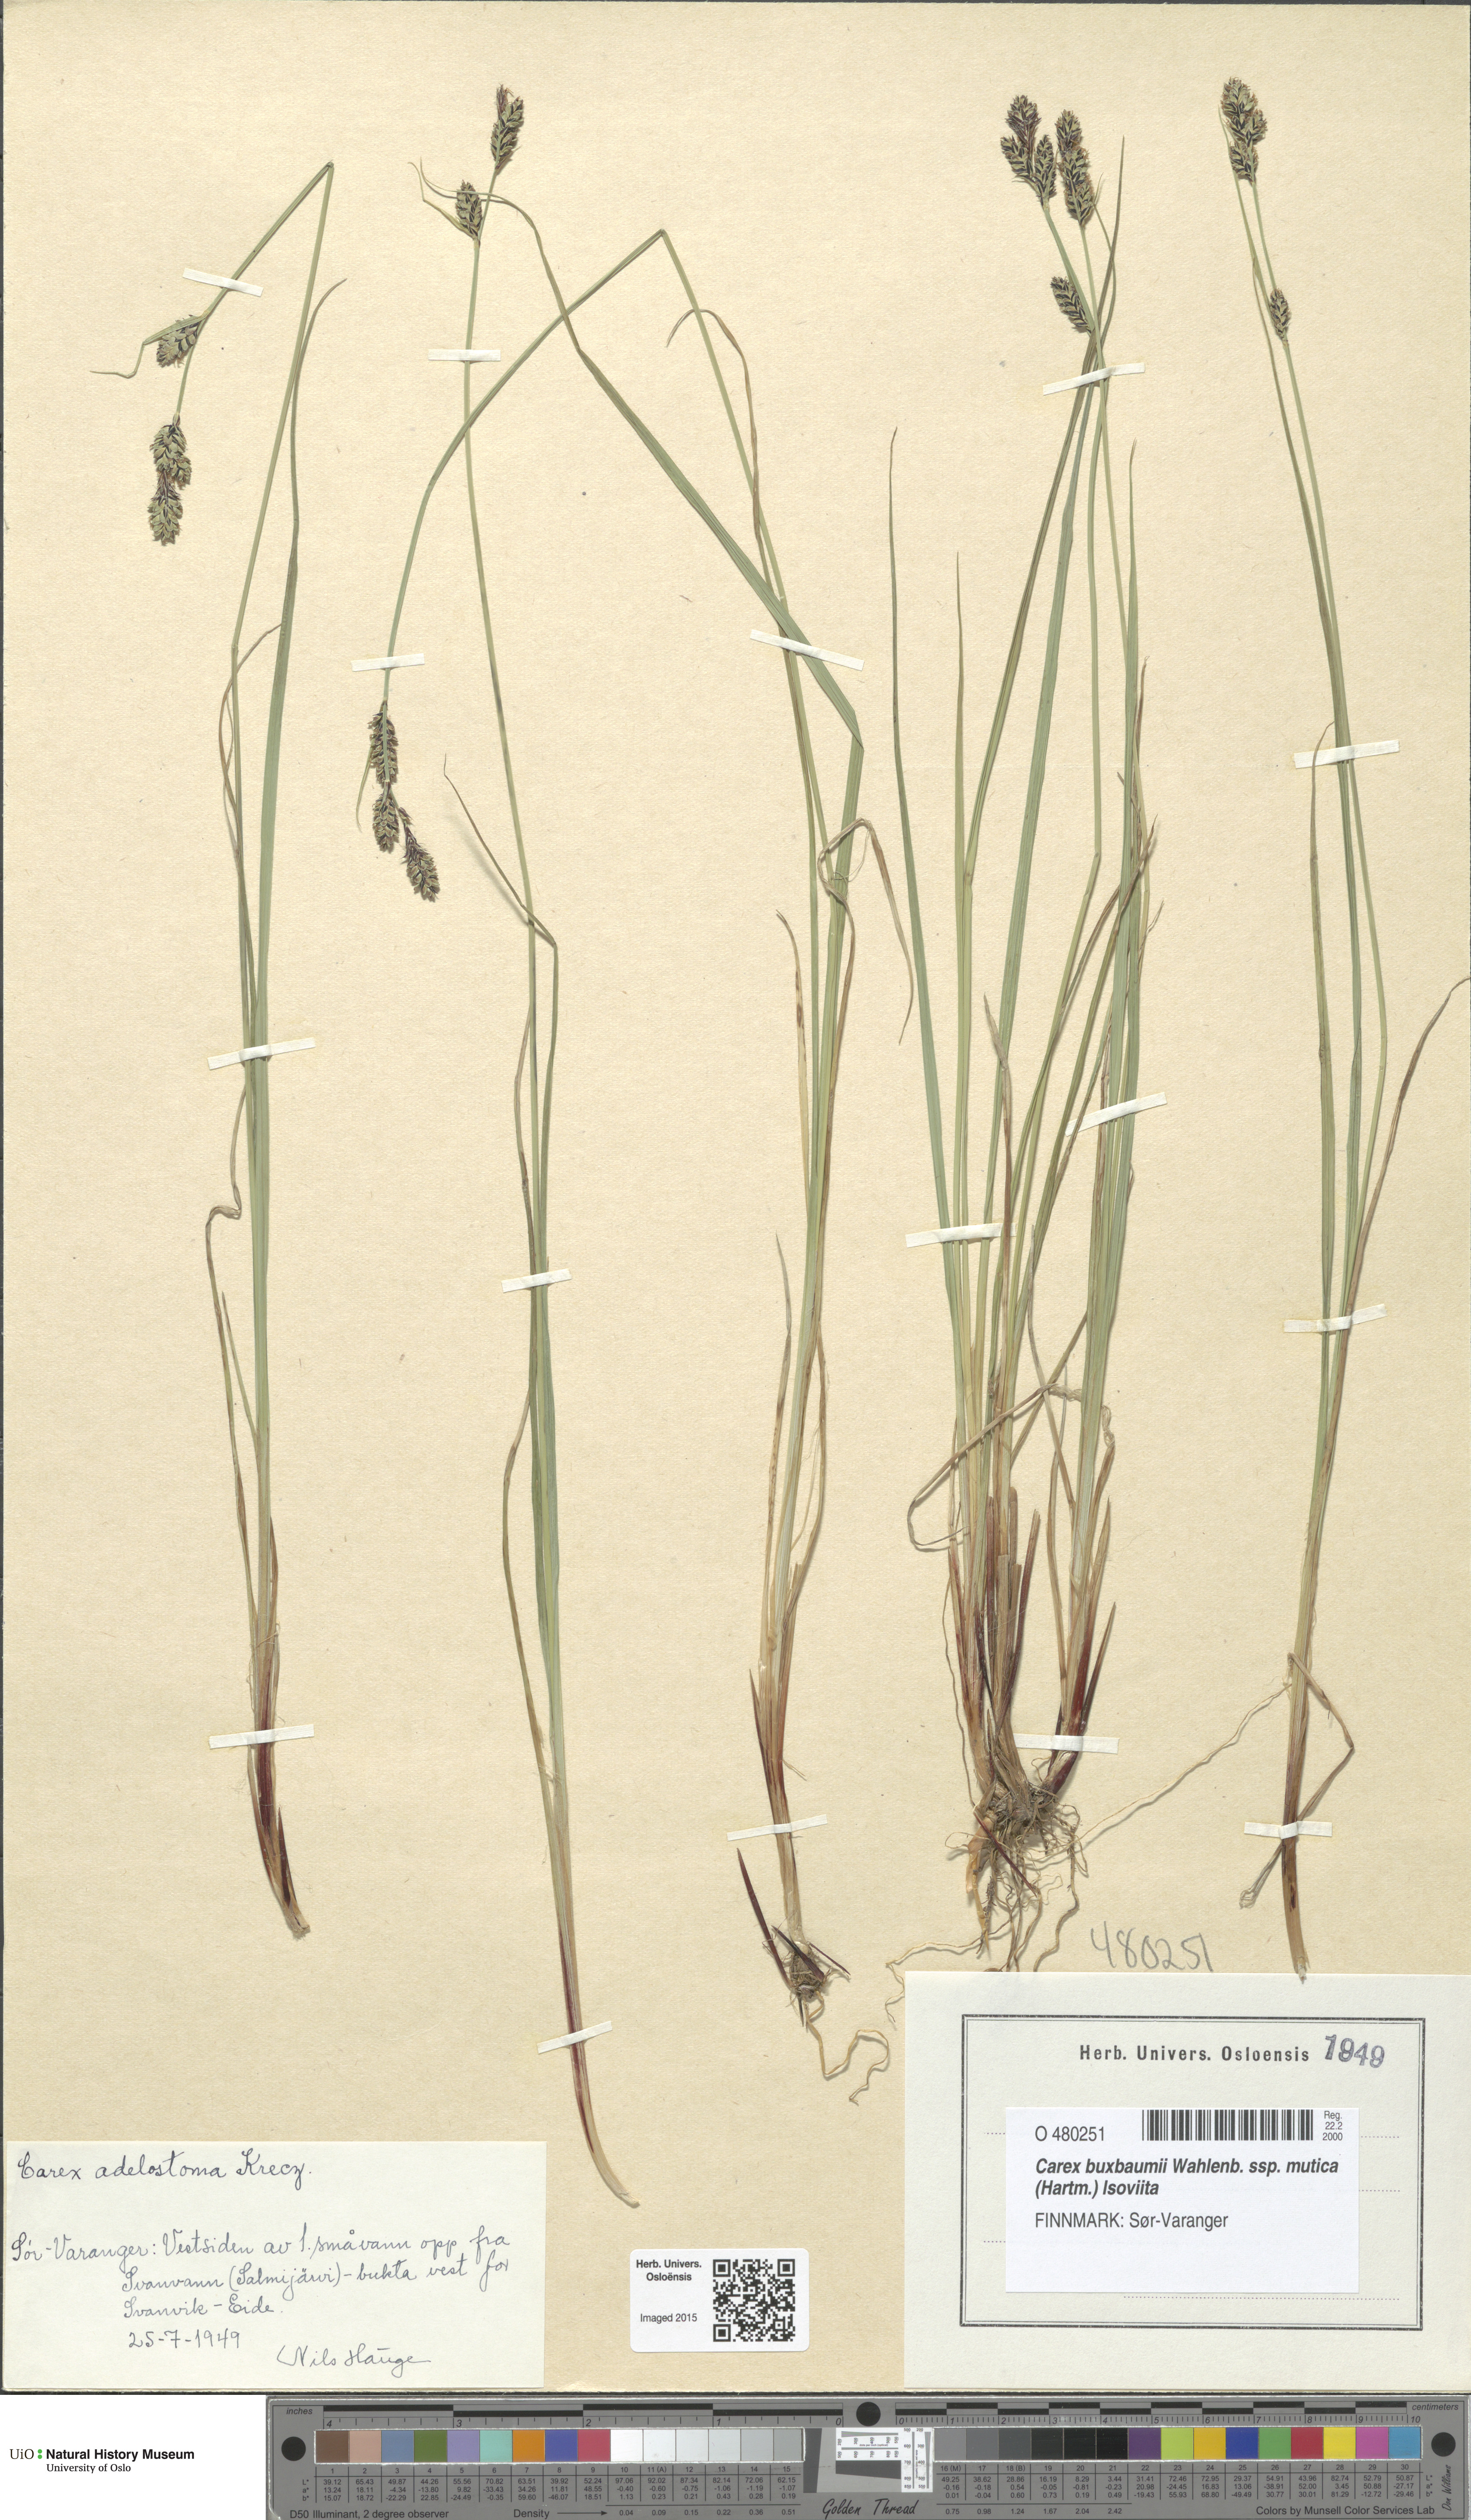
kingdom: Plantae
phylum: Tracheophyta
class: Liliopsida
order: Poales
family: Cyperaceae
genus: Carex
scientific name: Carex adelostoma
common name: Circumpolar sedge
